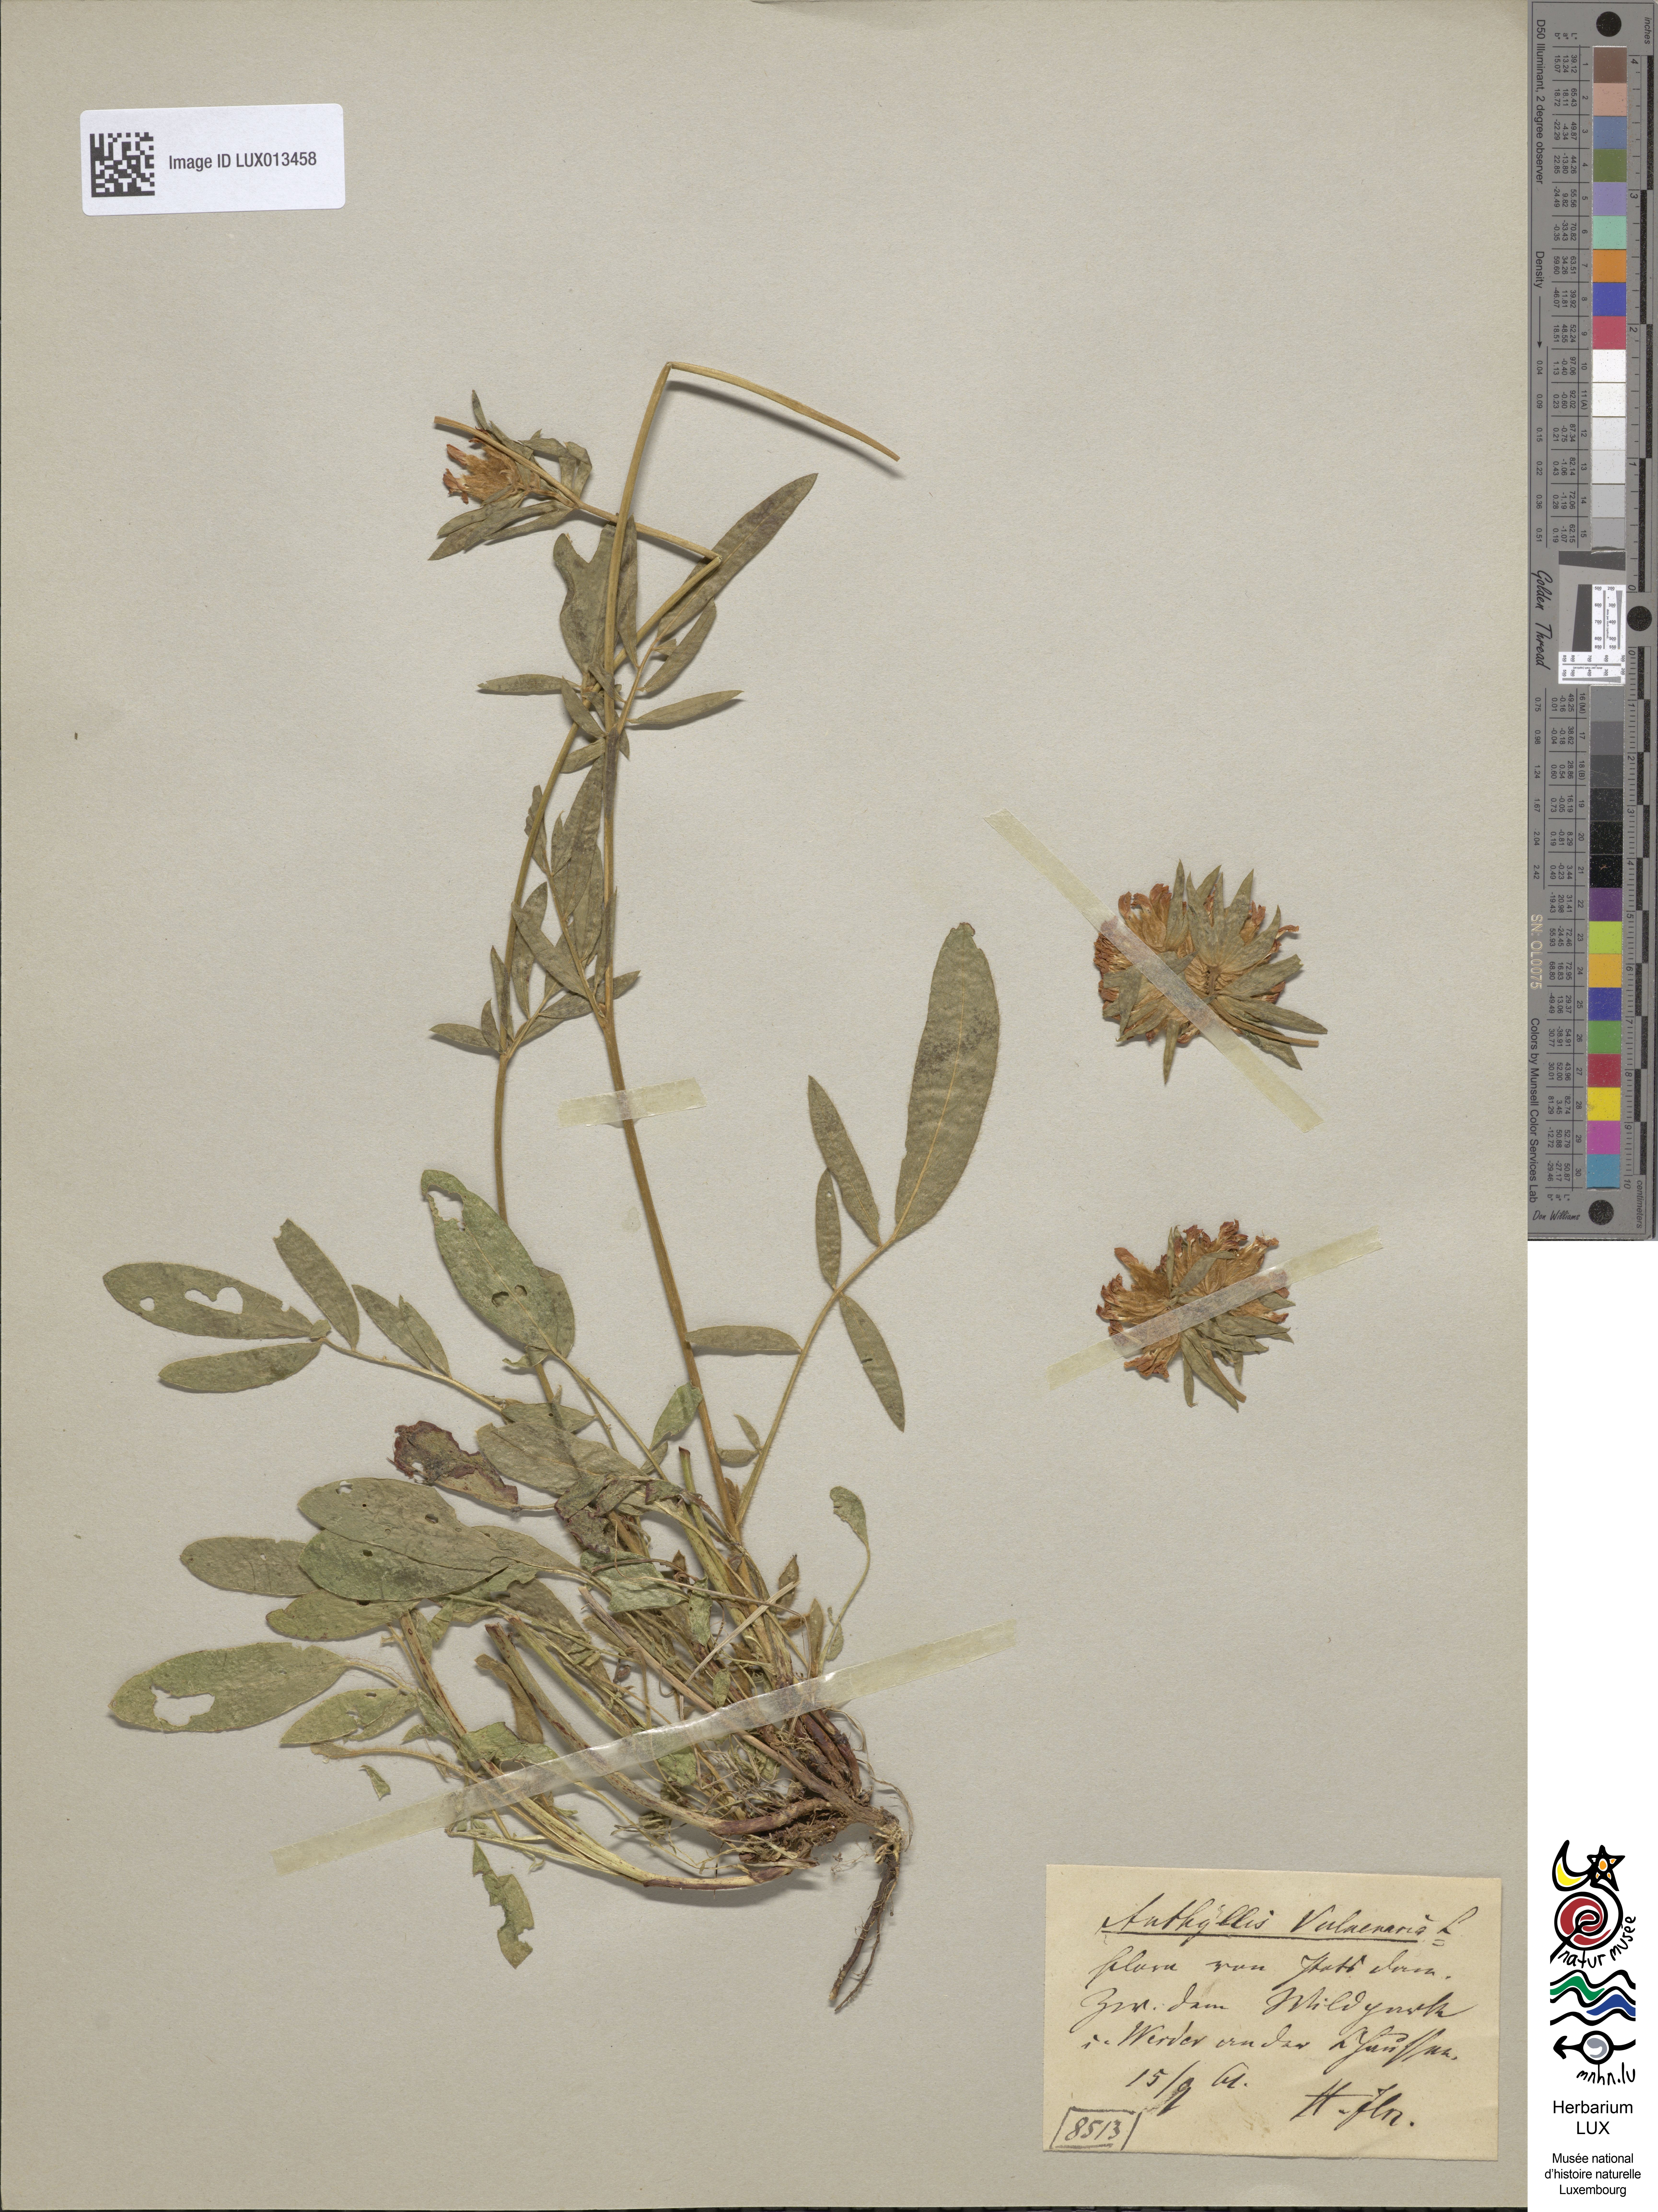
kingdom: Plantae
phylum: Tracheophyta
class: Magnoliopsida
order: Fabales
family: Fabaceae
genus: Anthyllis
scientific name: Anthyllis vulneraria
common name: Kidney vetch
